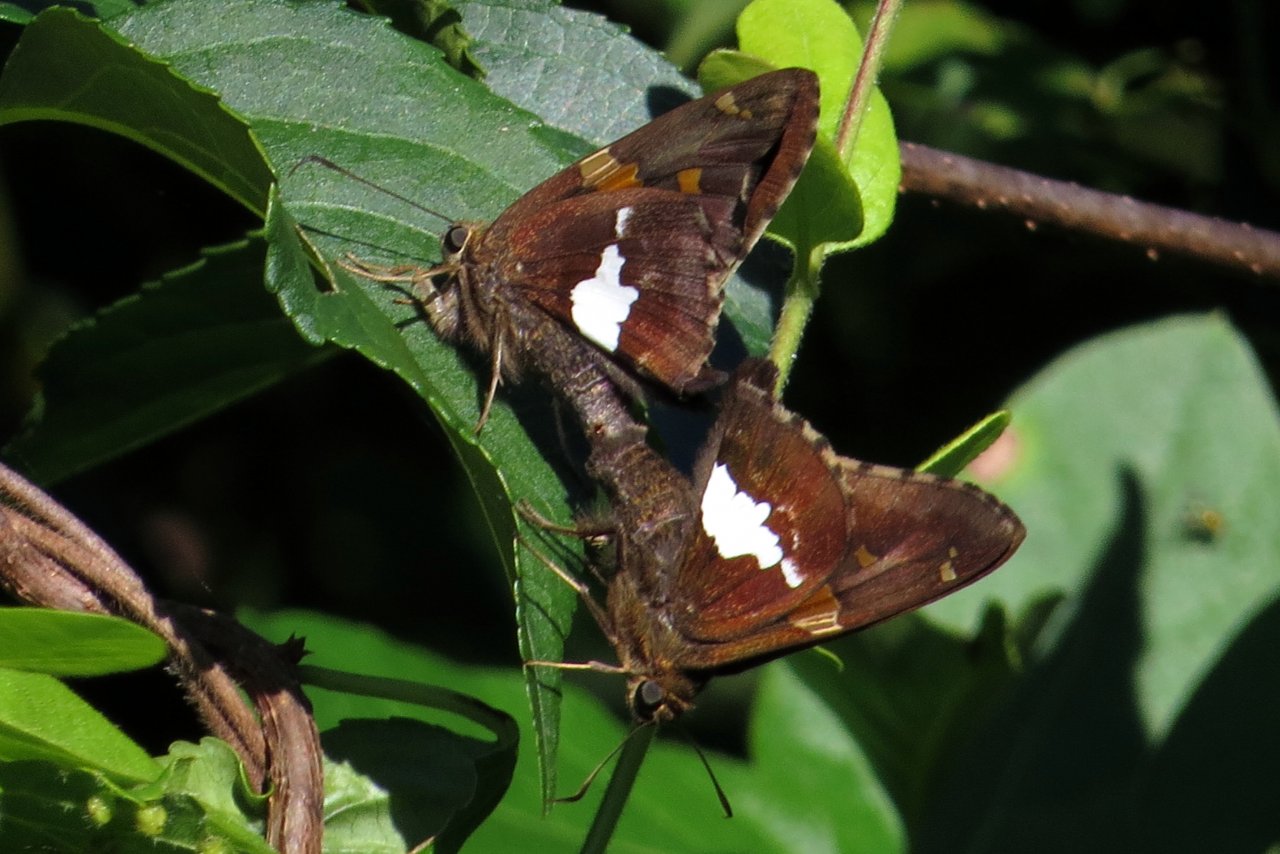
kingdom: Animalia
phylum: Arthropoda
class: Insecta
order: Lepidoptera
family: Hesperiidae
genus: Epargyreus
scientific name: Epargyreus clarus
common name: Silver-spotted Skipper
